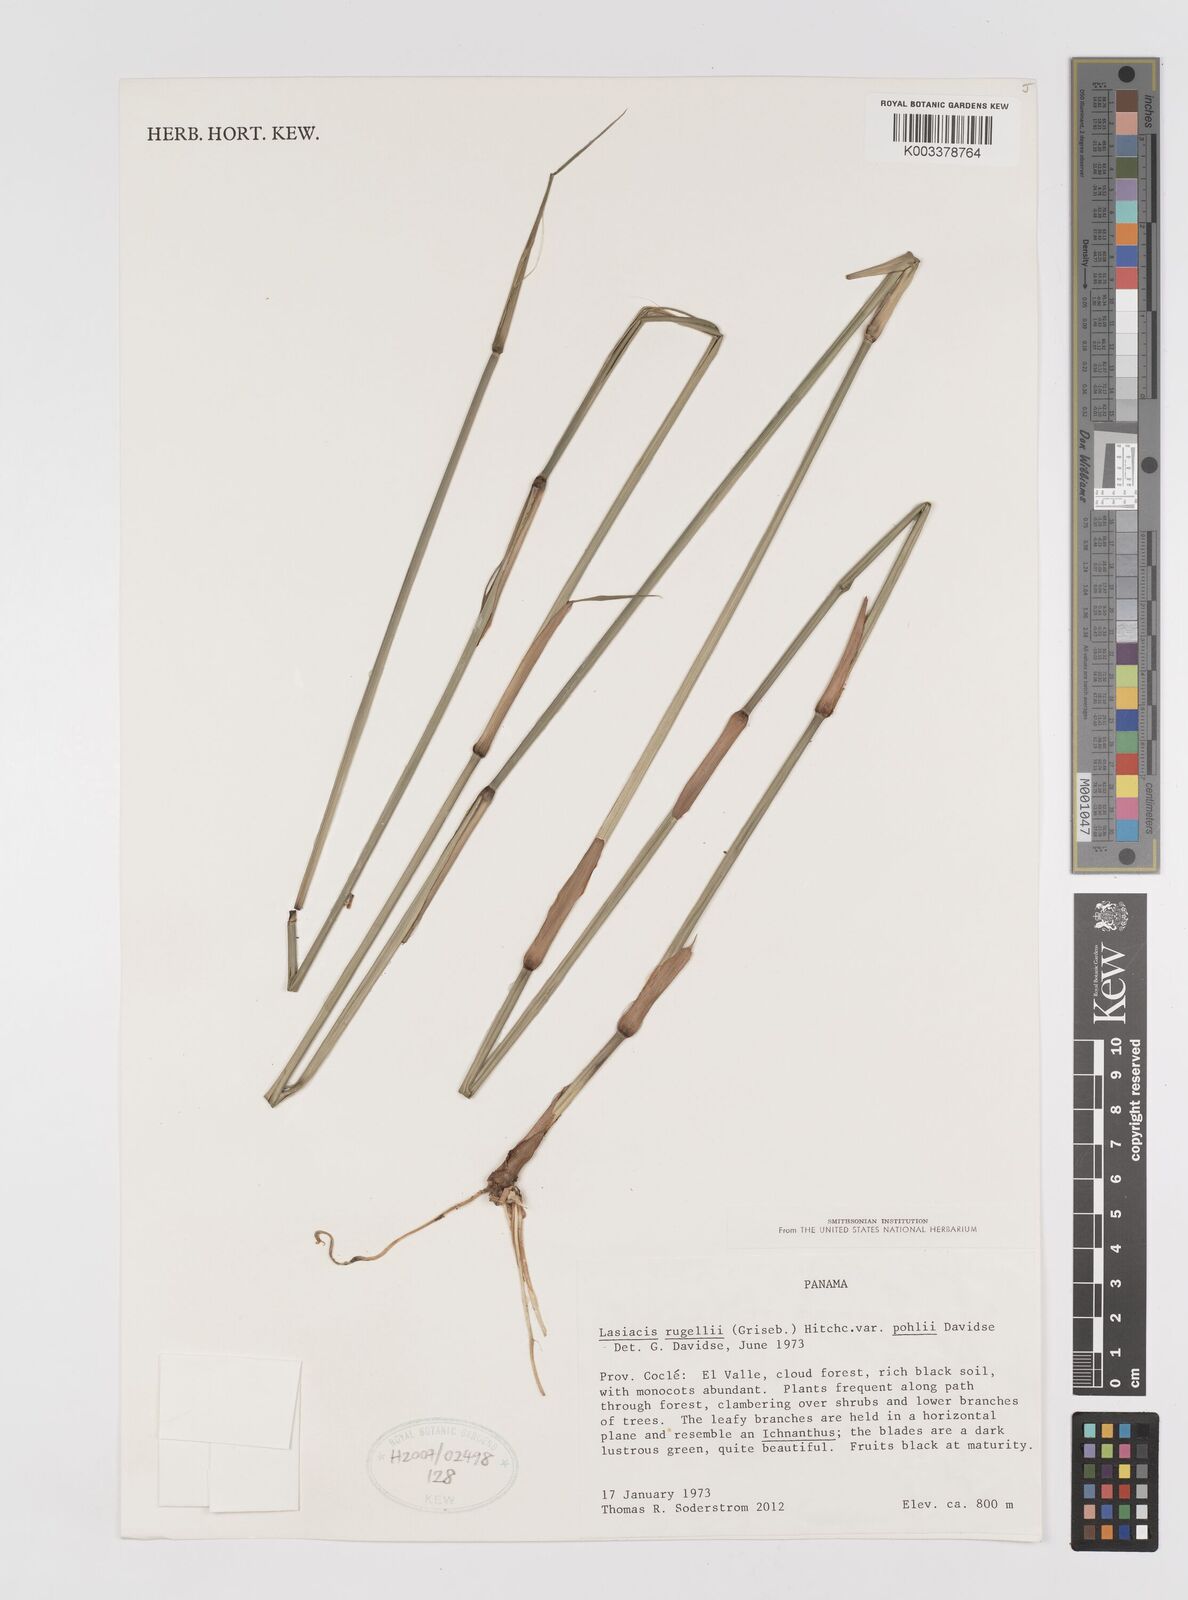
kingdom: Plantae
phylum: Tracheophyta
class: Liliopsida
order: Poales
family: Poaceae
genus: Lasiacis
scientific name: Lasiacis rugelii
